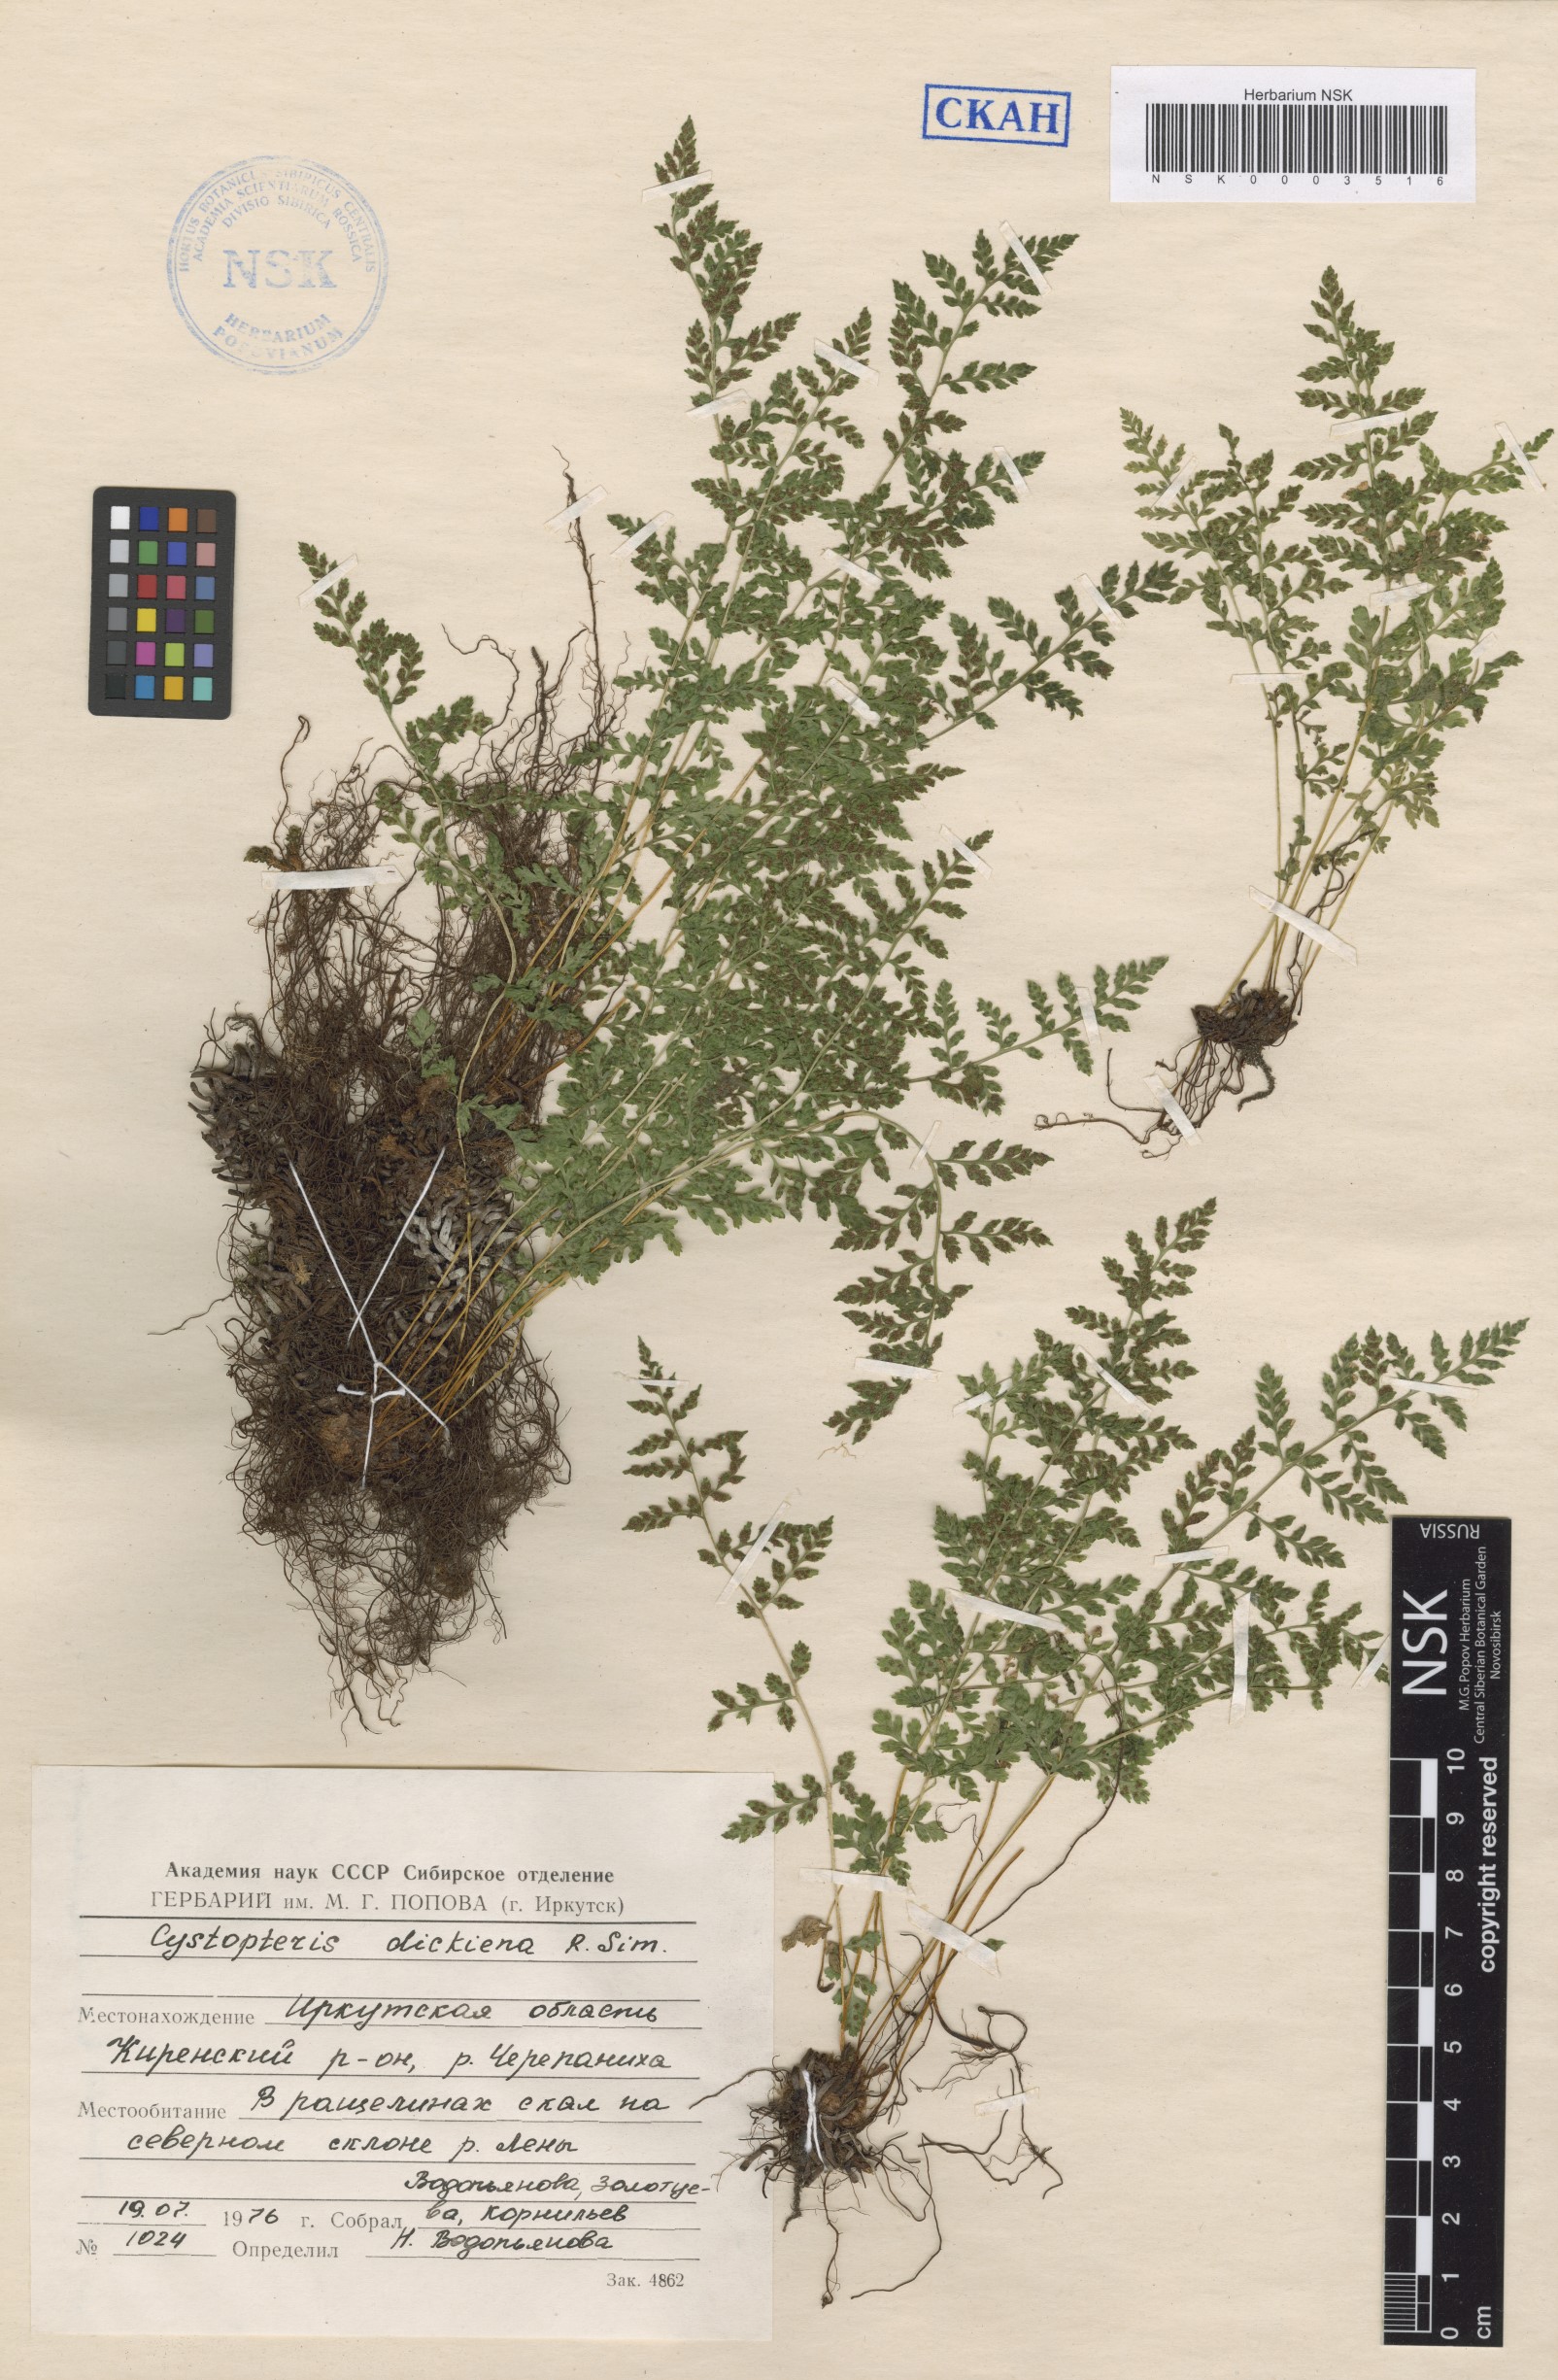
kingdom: Plantae
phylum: Tracheophyta
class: Polypodiopsida
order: Polypodiales
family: Cystopteridaceae
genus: Cystopteris
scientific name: Cystopteris dickieana
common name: Dickie's bladder-fern
